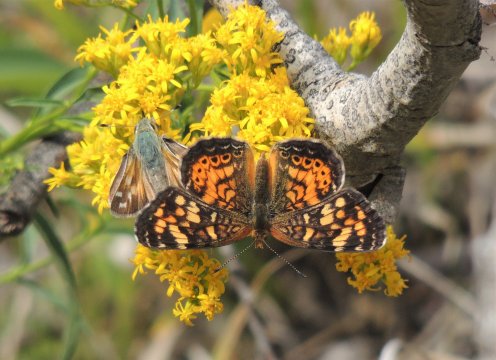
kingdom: Animalia
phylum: Arthropoda
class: Insecta
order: Lepidoptera
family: Nymphalidae
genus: Phyciodes
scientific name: Phyciodes tharos
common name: Field Crescent
